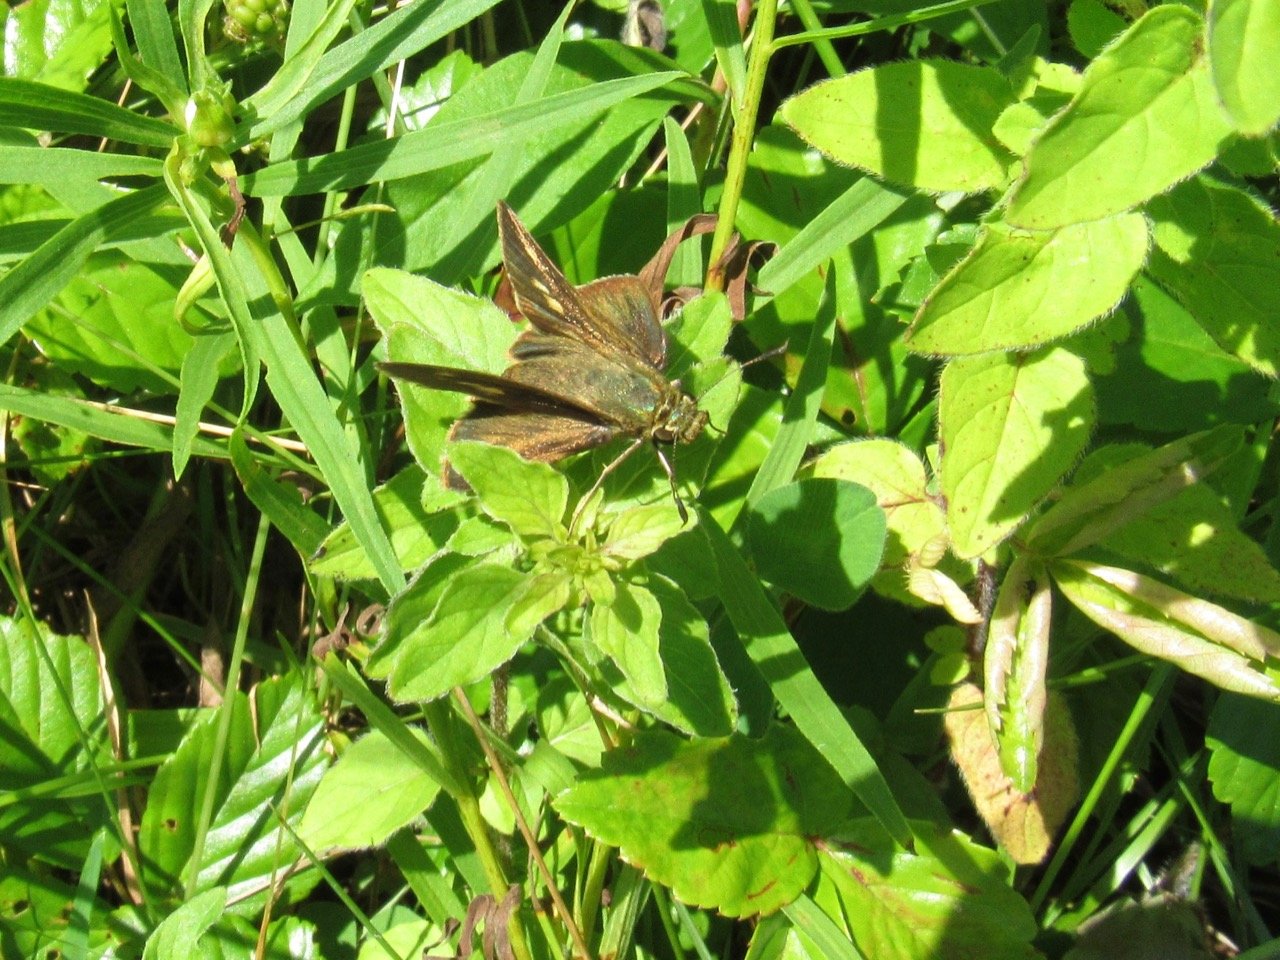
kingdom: Animalia
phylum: Arthropoda
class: Insecta
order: Lepidoptera
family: Hesperiidae
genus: Polites
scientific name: Polites egeremet
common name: Northern Broken-Dash
